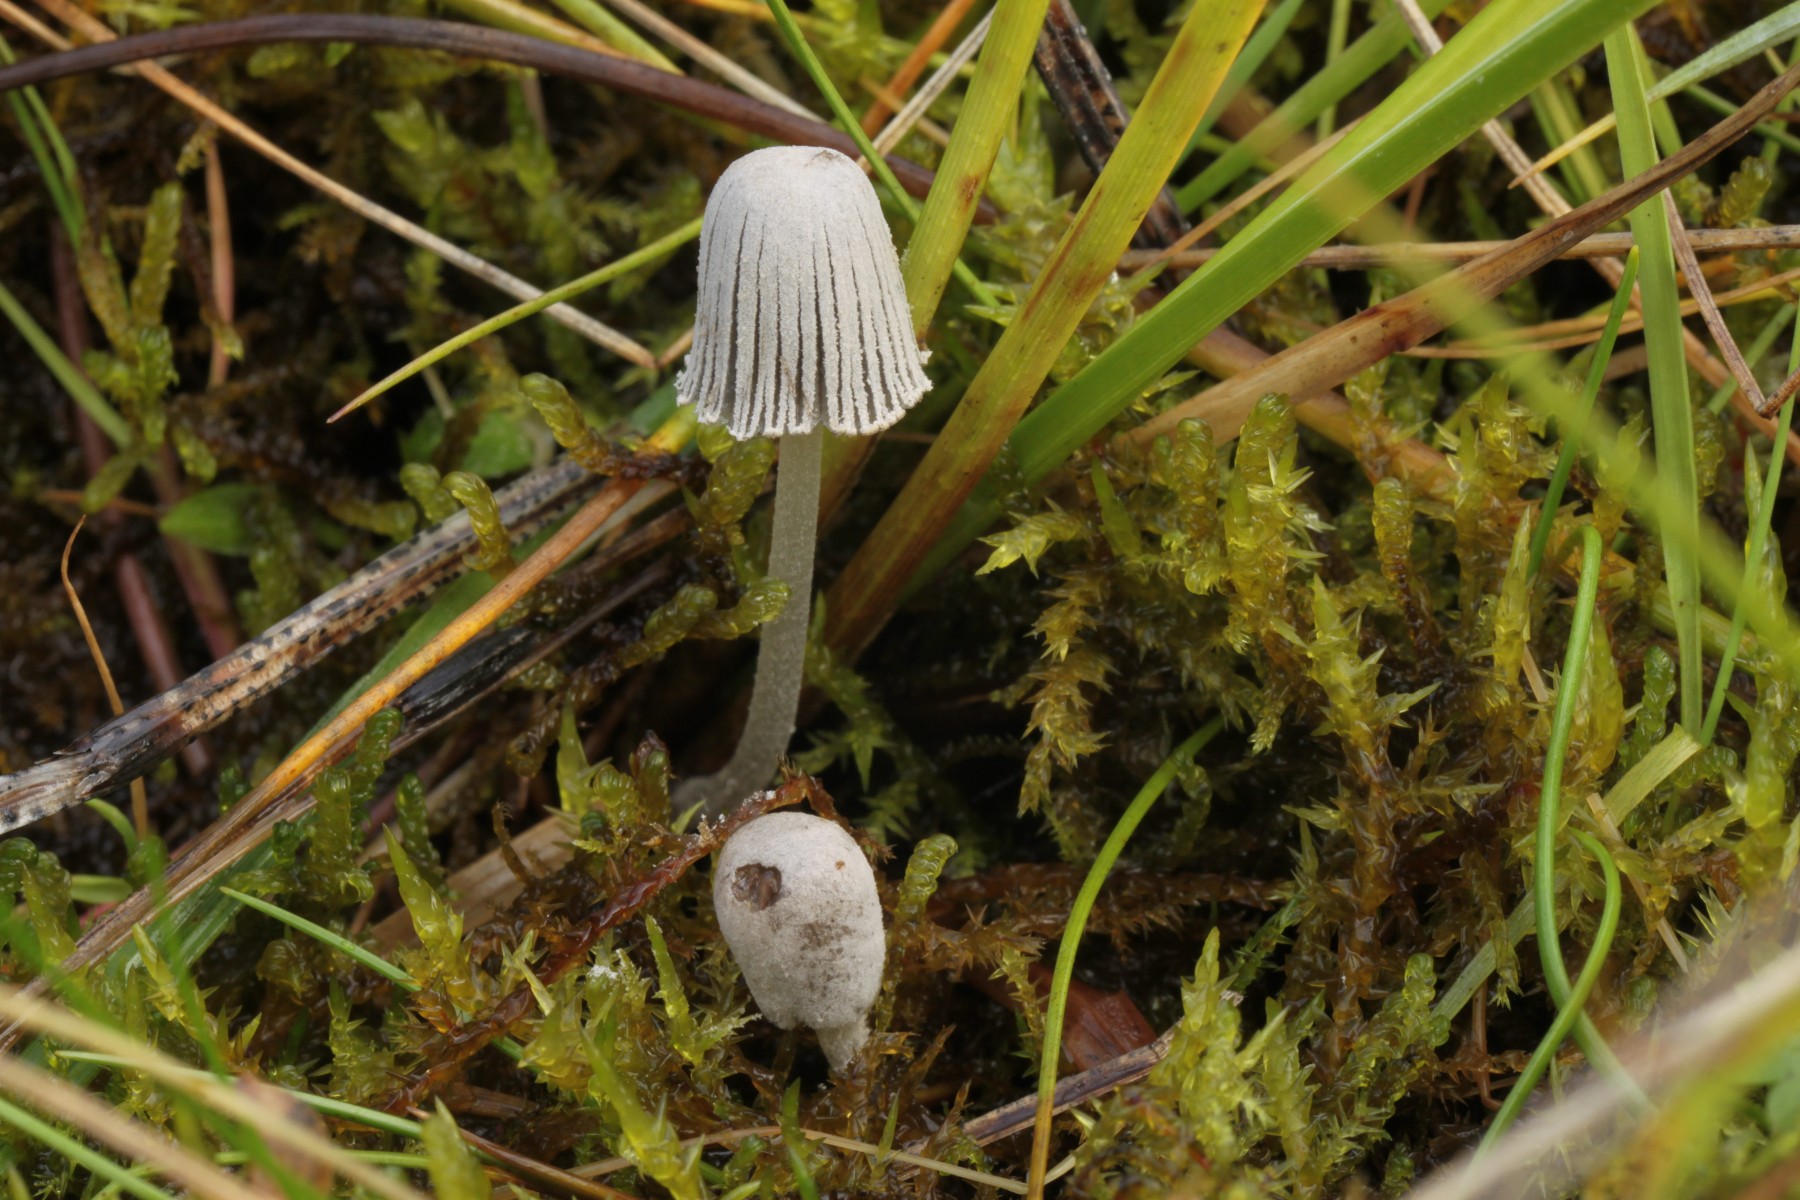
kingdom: Fungi
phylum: Basidiomycota
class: Agaricomycetes
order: Agaricales
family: Psathyrellaceae
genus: Coprinopsis
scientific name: Coprinopsis martinii
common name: rigkær-blækhat
